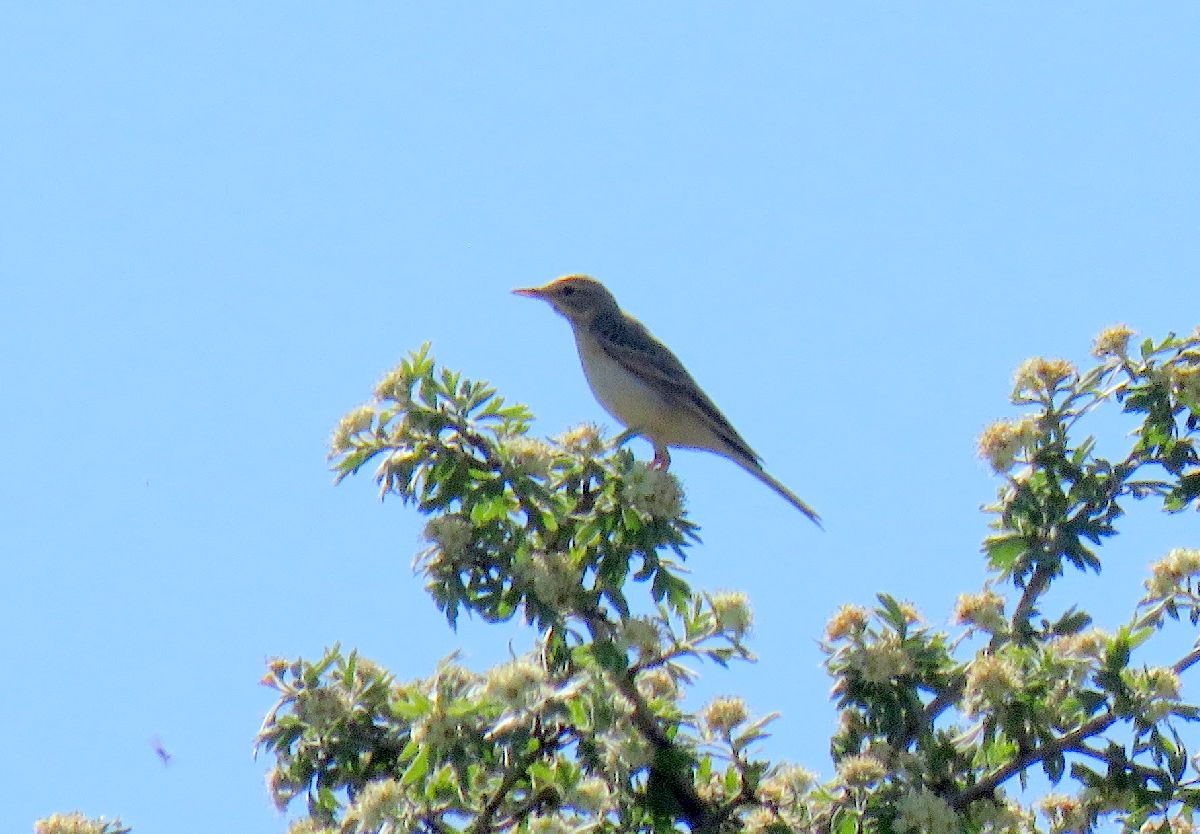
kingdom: Animalia
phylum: Chordata
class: Aves
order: Passeriformes
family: Motacillidae
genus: Anthus
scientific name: Anthus campestris
